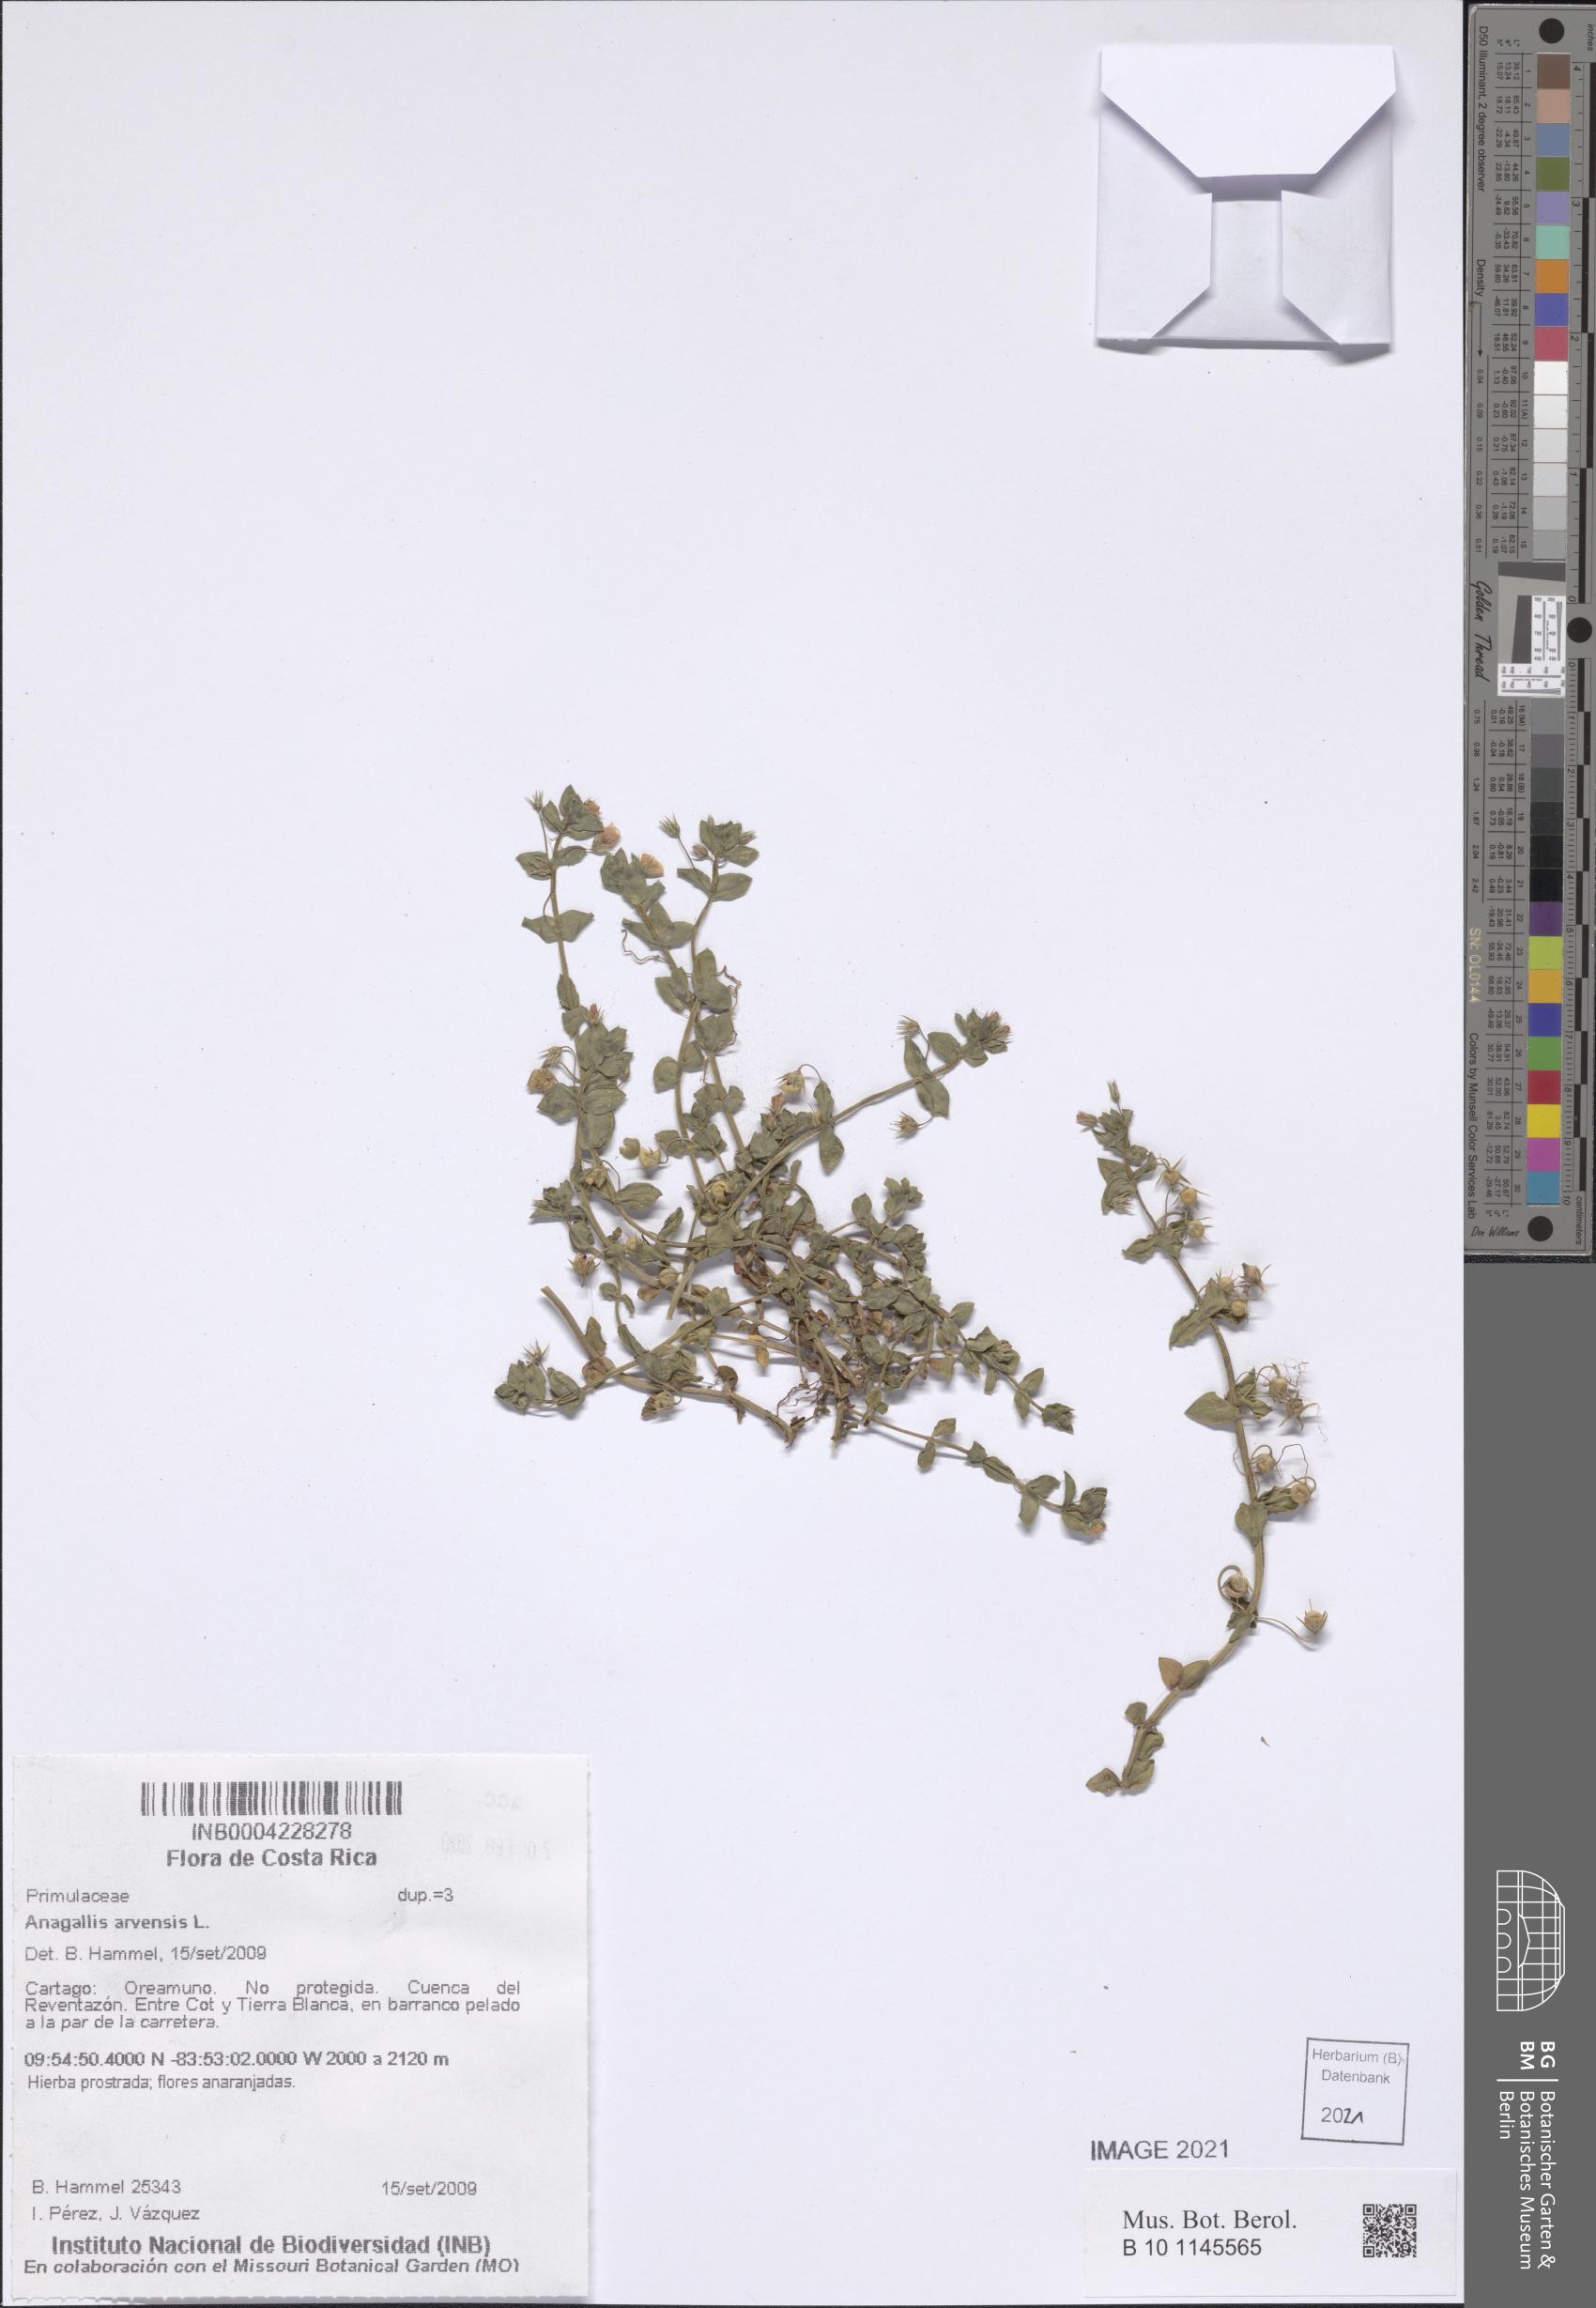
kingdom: Plantae
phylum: Tracheophyta
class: Magnoliopsida
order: Ericales
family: Primulaceae
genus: Lysimachia
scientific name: Lysimachia arvensis
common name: Scarlet pimpernel
